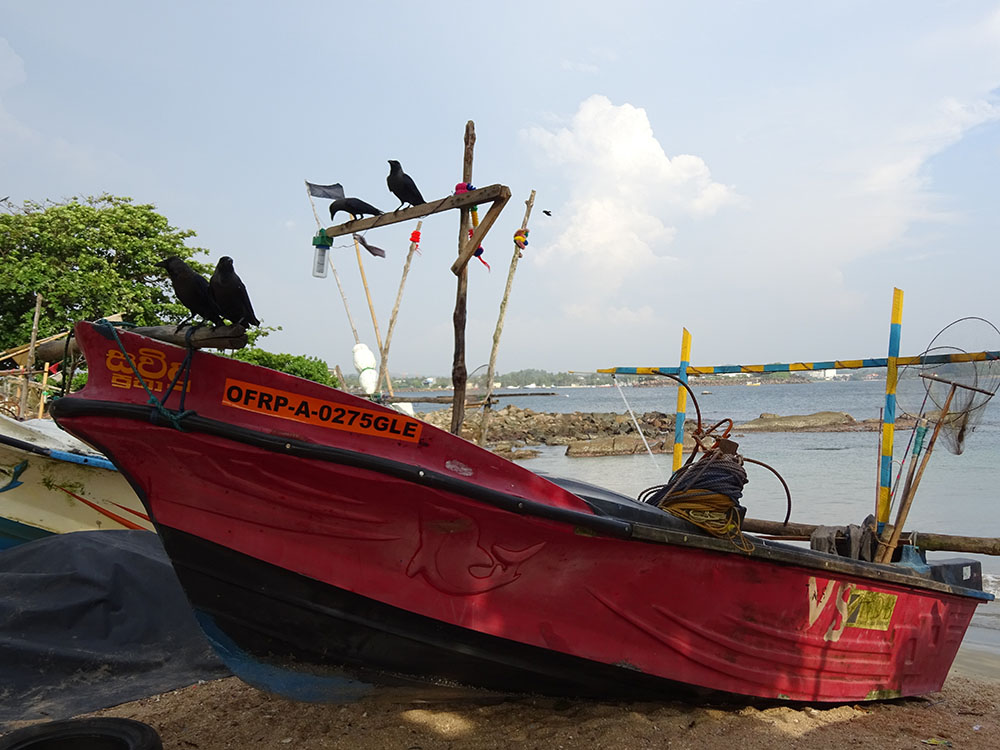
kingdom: Animalia
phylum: Chordata
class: Aves
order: Passeriformes
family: Corvidae
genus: Corvus
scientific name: Corvus splendens
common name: House crow
